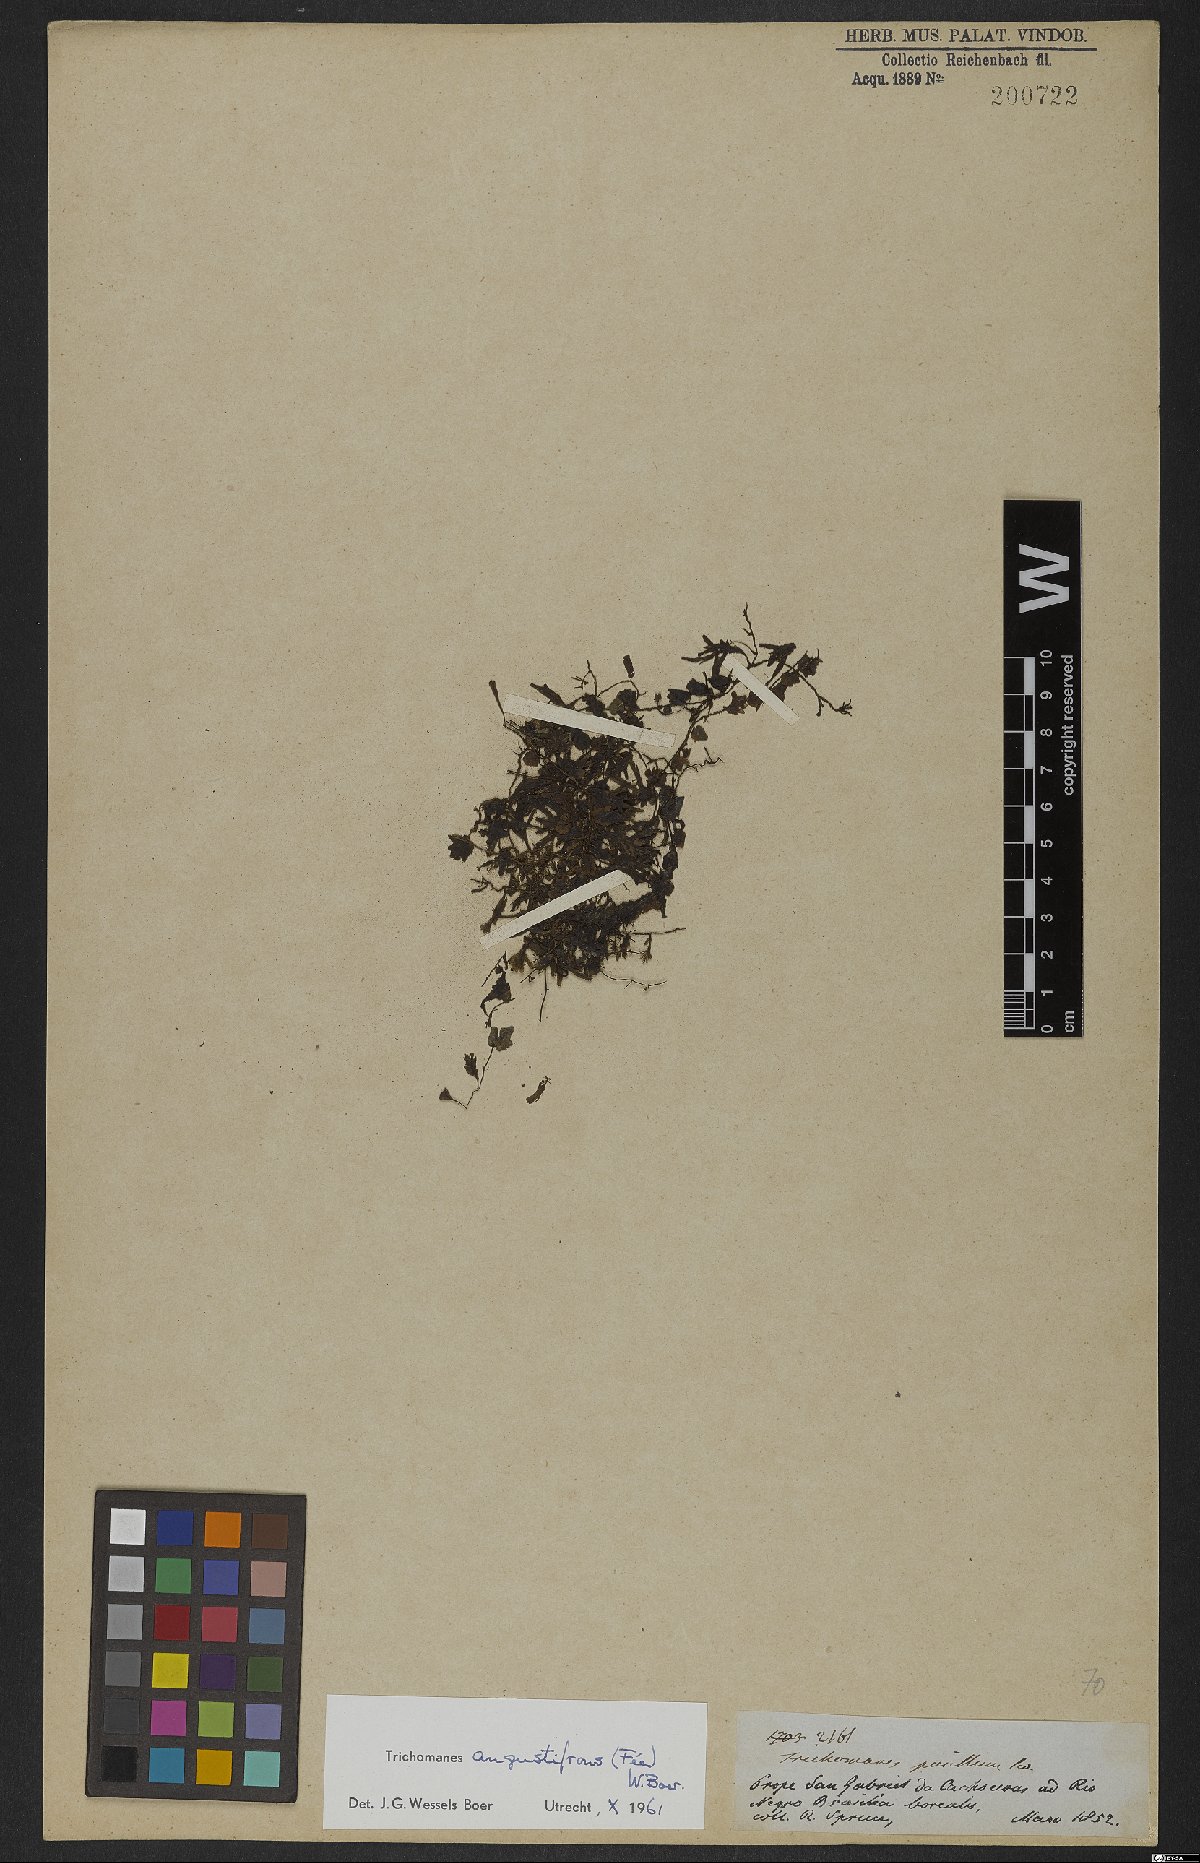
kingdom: Plantae
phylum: Tracheophyta
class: Polypodiopsida
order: Hymenophyllales
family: Hymenophyllaceae
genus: Didymoglossum
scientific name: Didymoglossum angustifrons
